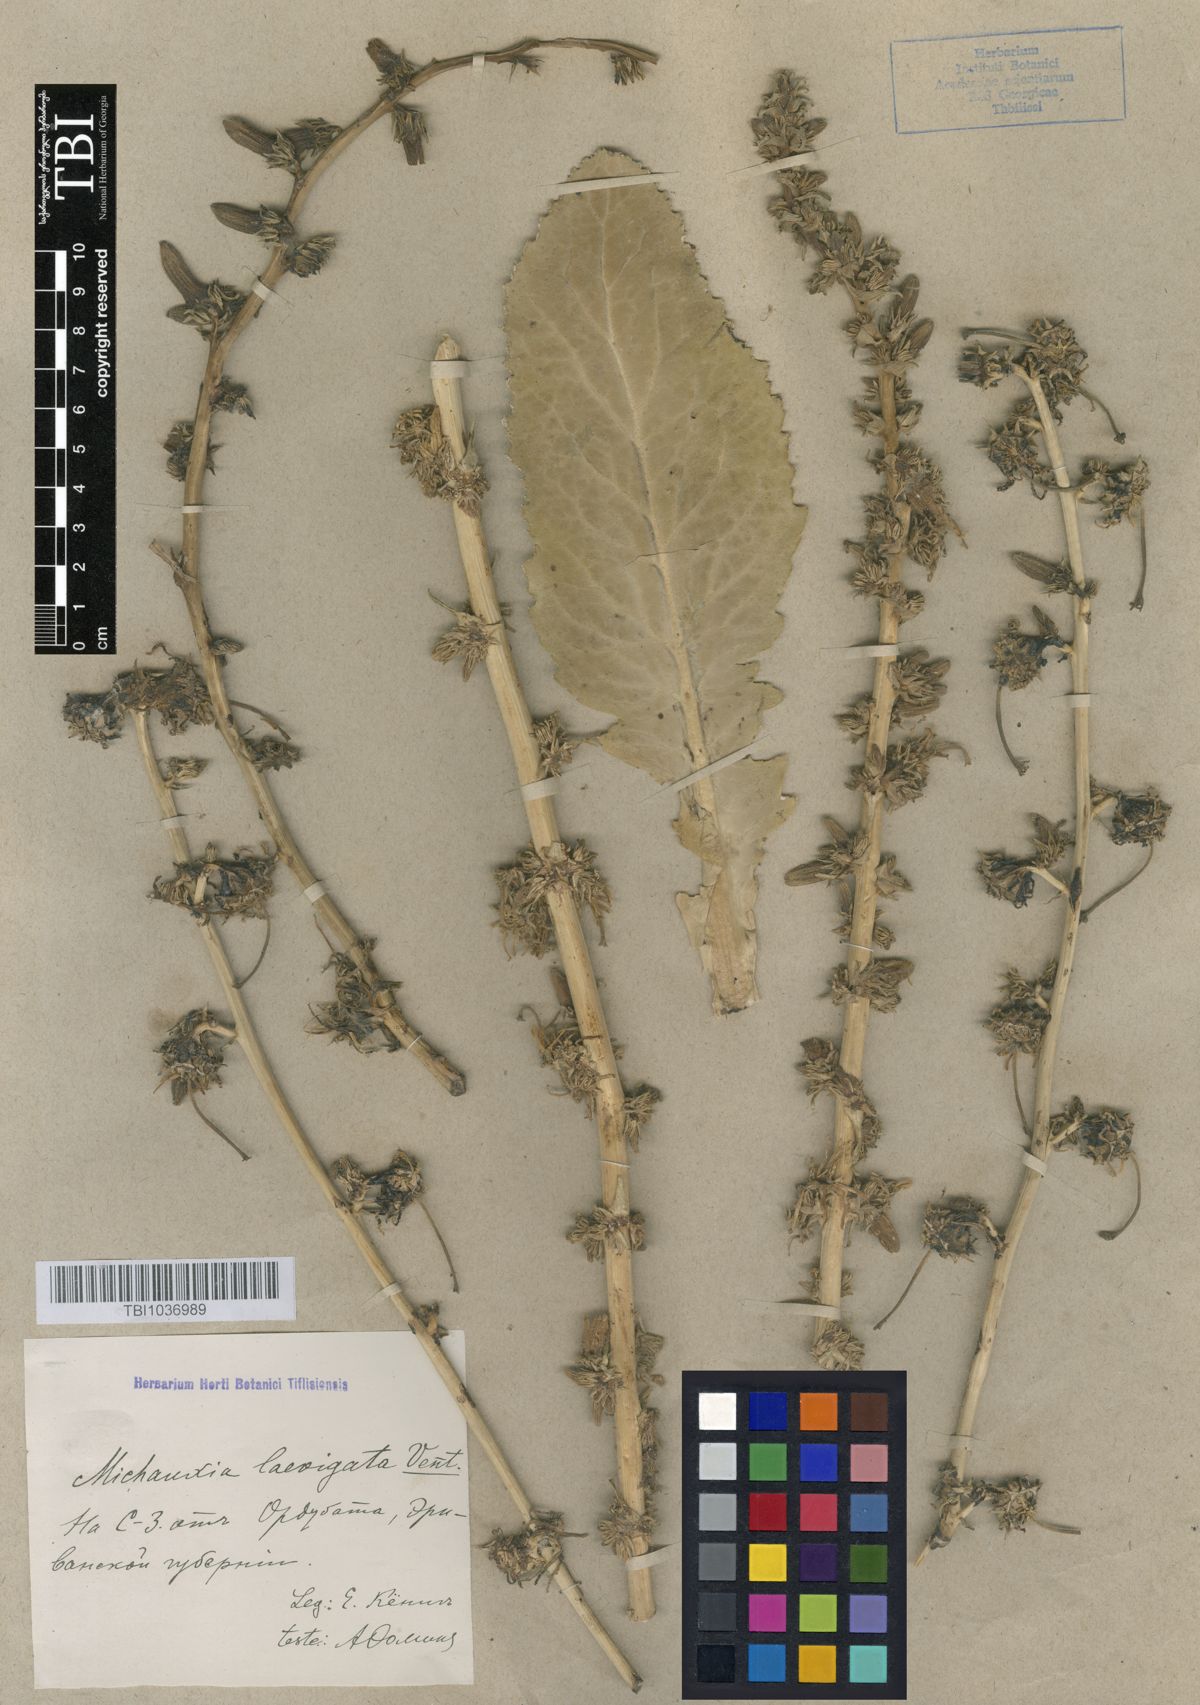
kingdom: Plantae
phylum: Tracheophyta
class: Magnoliopsida
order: Asterales
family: Campanulaceae
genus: Michauxia
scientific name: Michauxia laevigata
